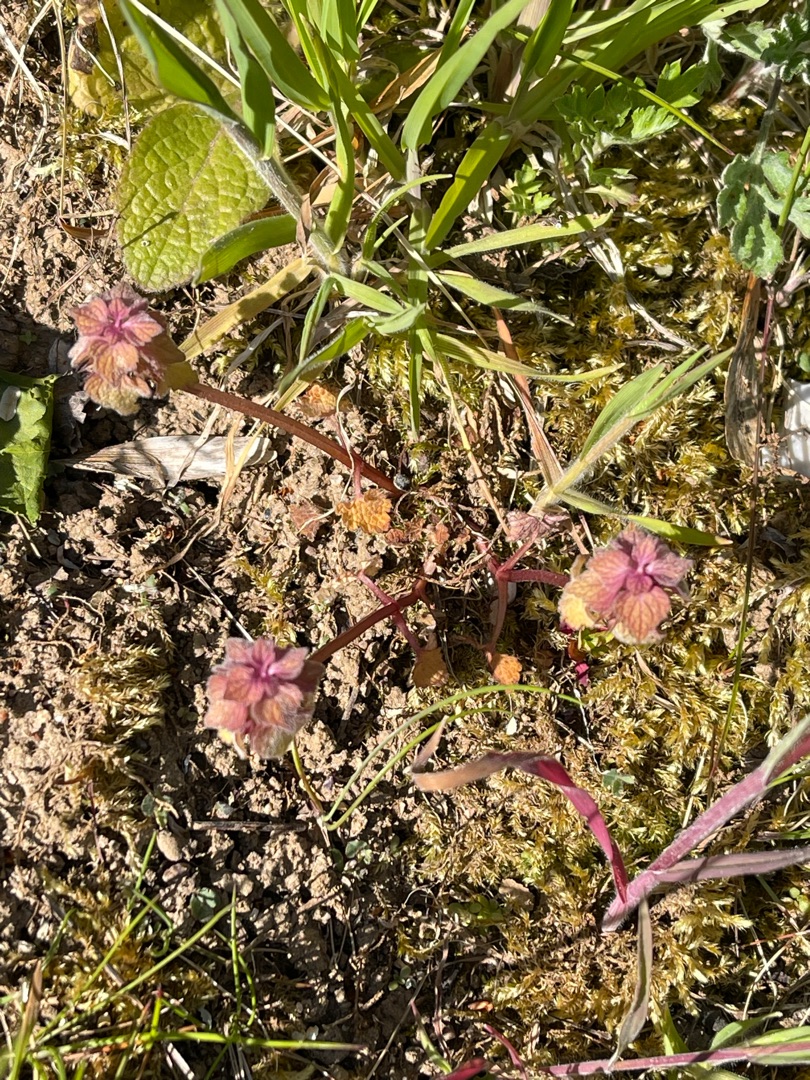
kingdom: Plantae
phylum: Tracheophyta
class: Magnoliopsida
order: Lamiales
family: Lamiaceae
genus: Lamium
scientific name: Lamium purpureum
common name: Rød tvetand
